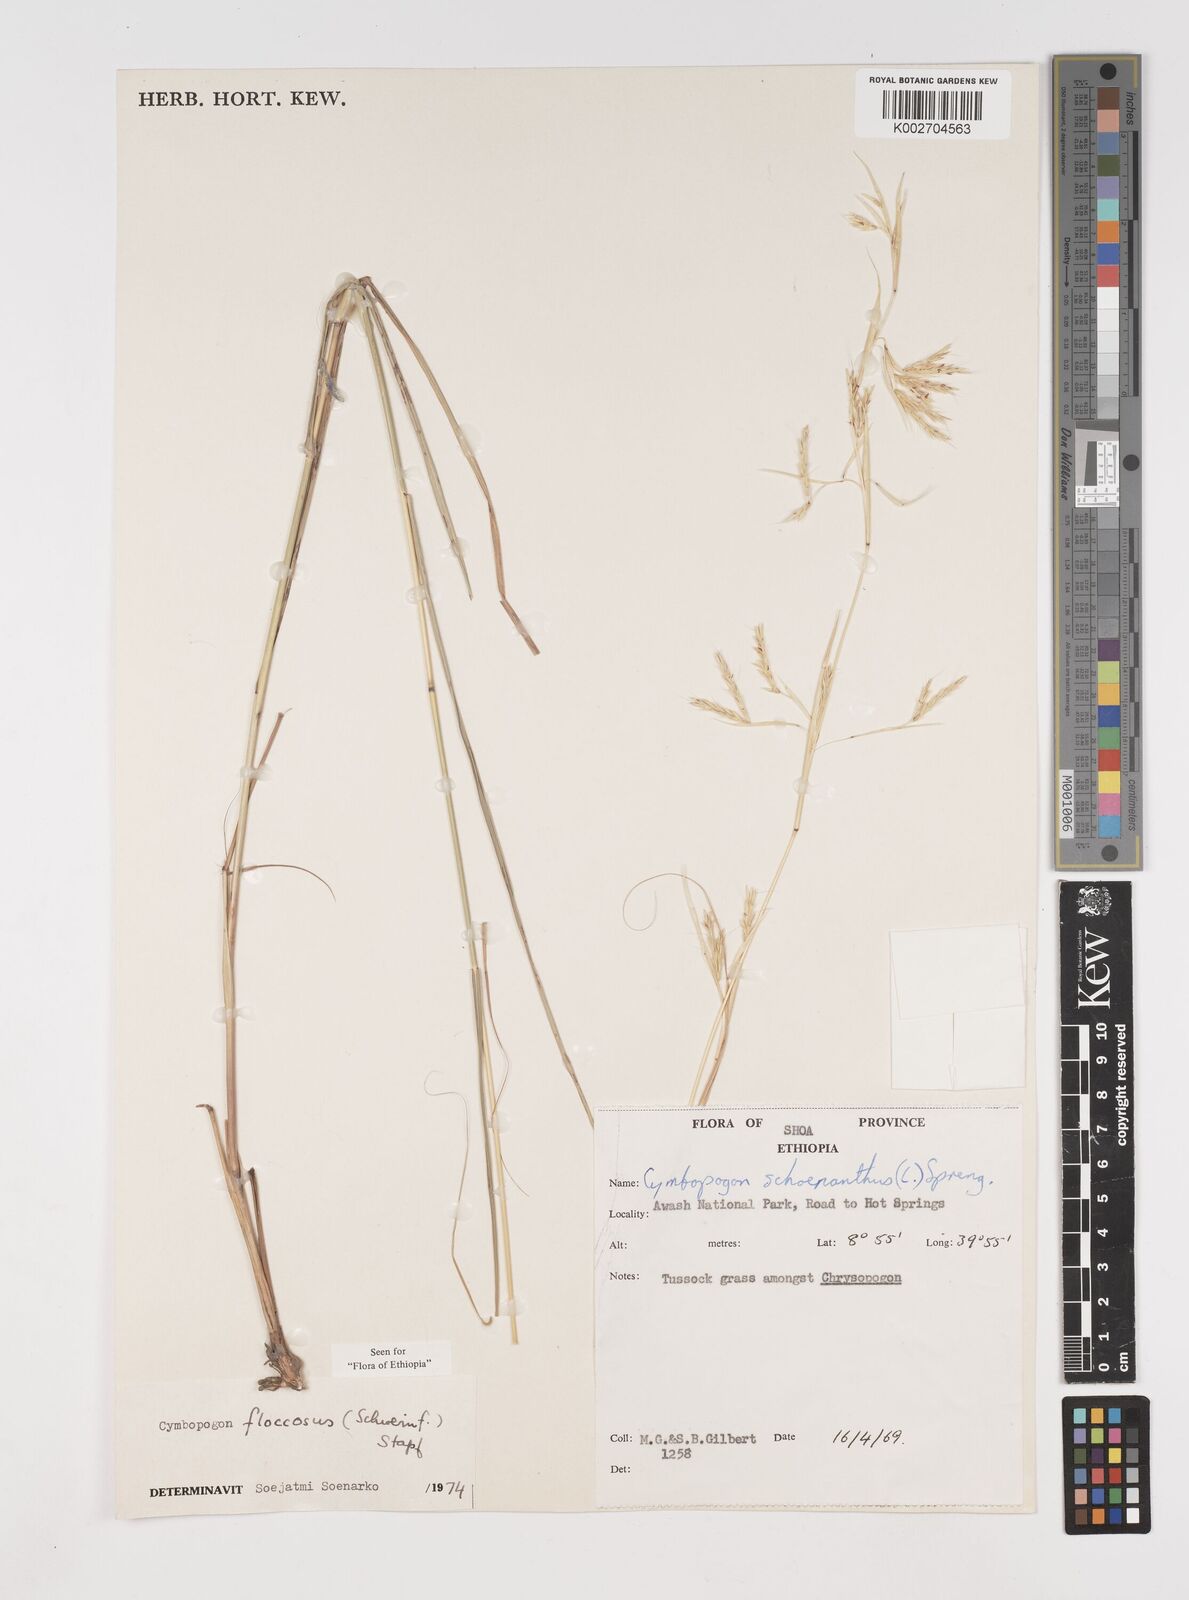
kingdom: Plantae
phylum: Tracheophyta
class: Liliopsida
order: Poales
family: Poaceae
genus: Cymbopogon
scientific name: Cymbopogon
